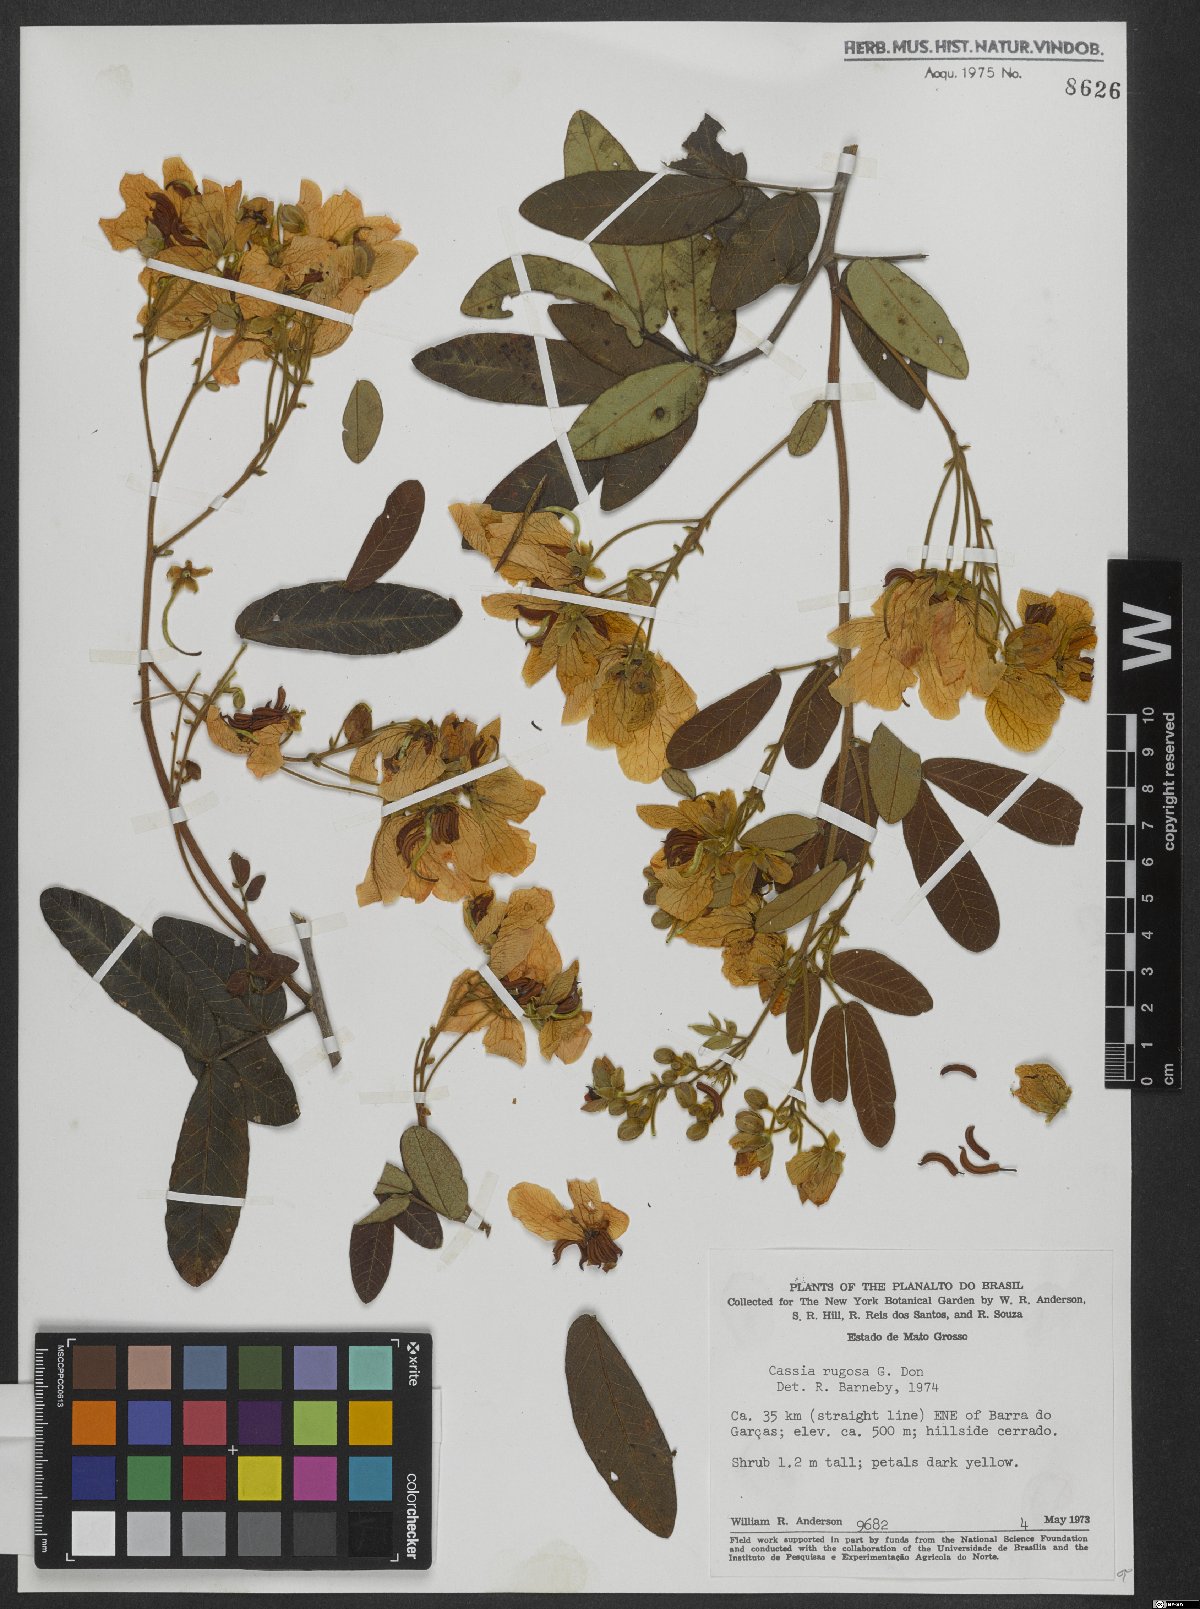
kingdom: Plantae
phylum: Tracheophyta
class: Magnoliopsida
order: Fabales
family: Fabaceae
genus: Senna
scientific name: Senna rugosa
